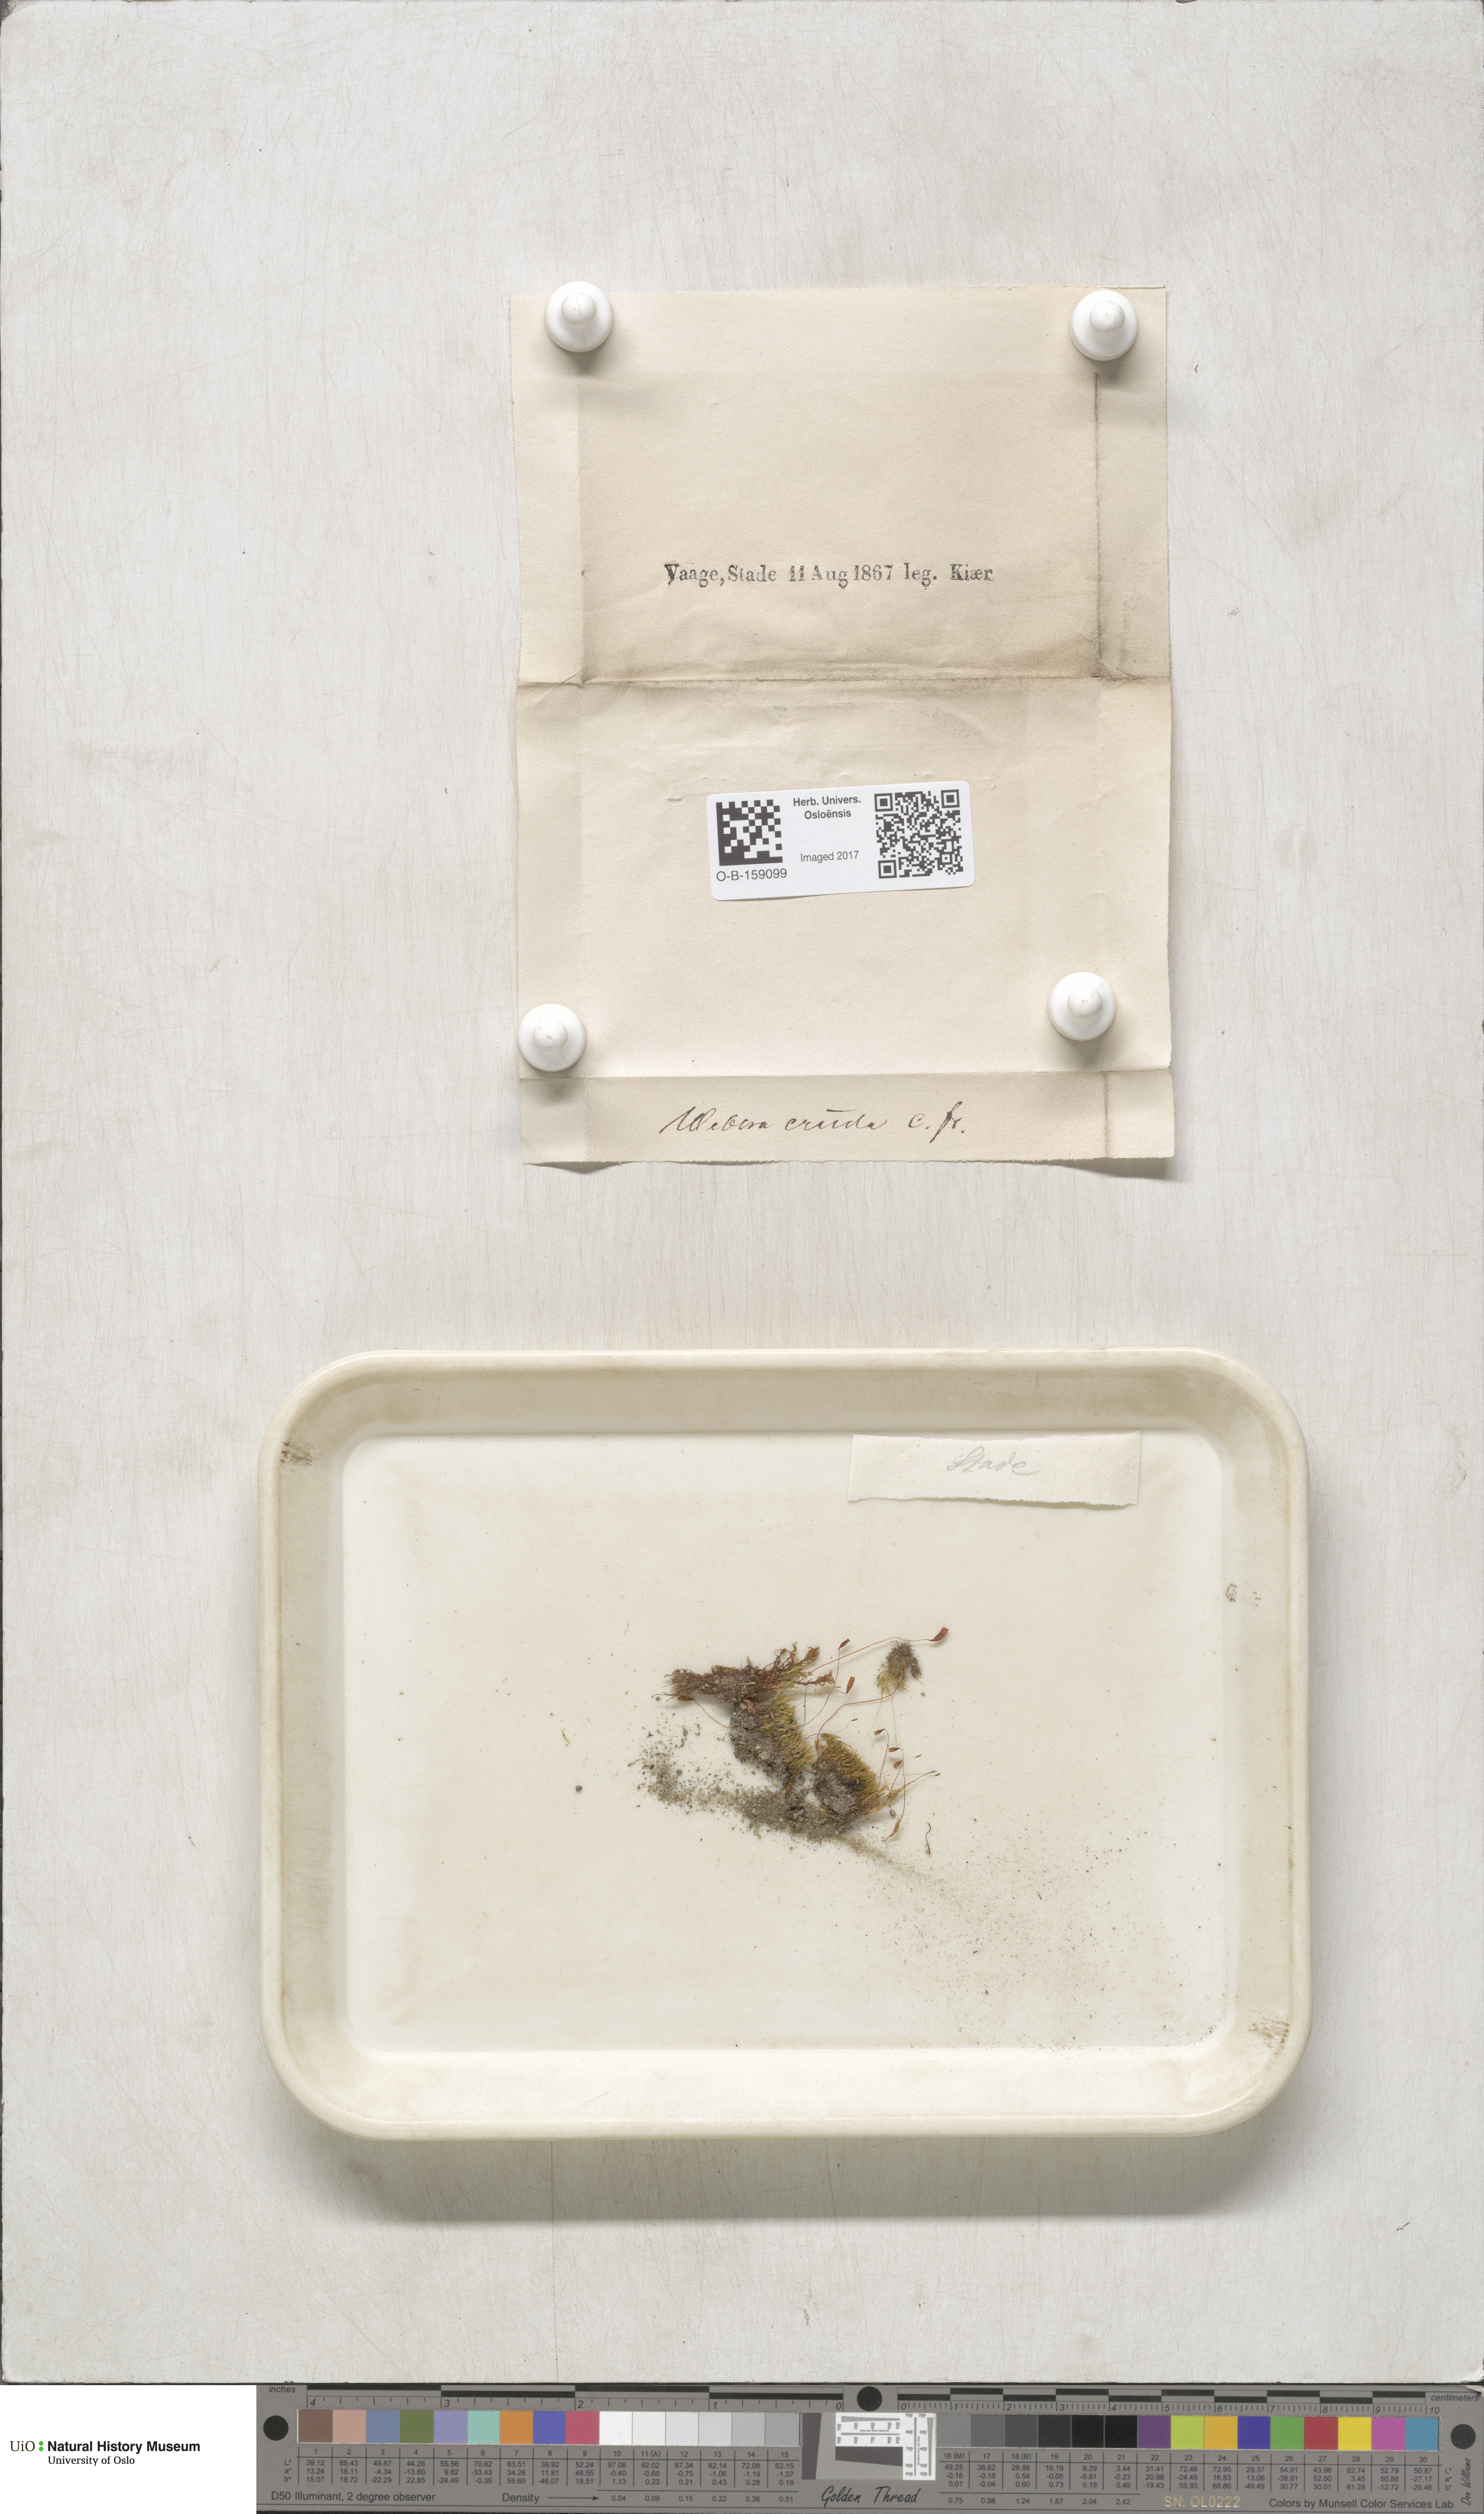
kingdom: Plantae
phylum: Bryophyta
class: Bryopsida
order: Bryales
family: Mniaceae
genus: Pohlia
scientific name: Pohlia cruda
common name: Opal nodding moss
